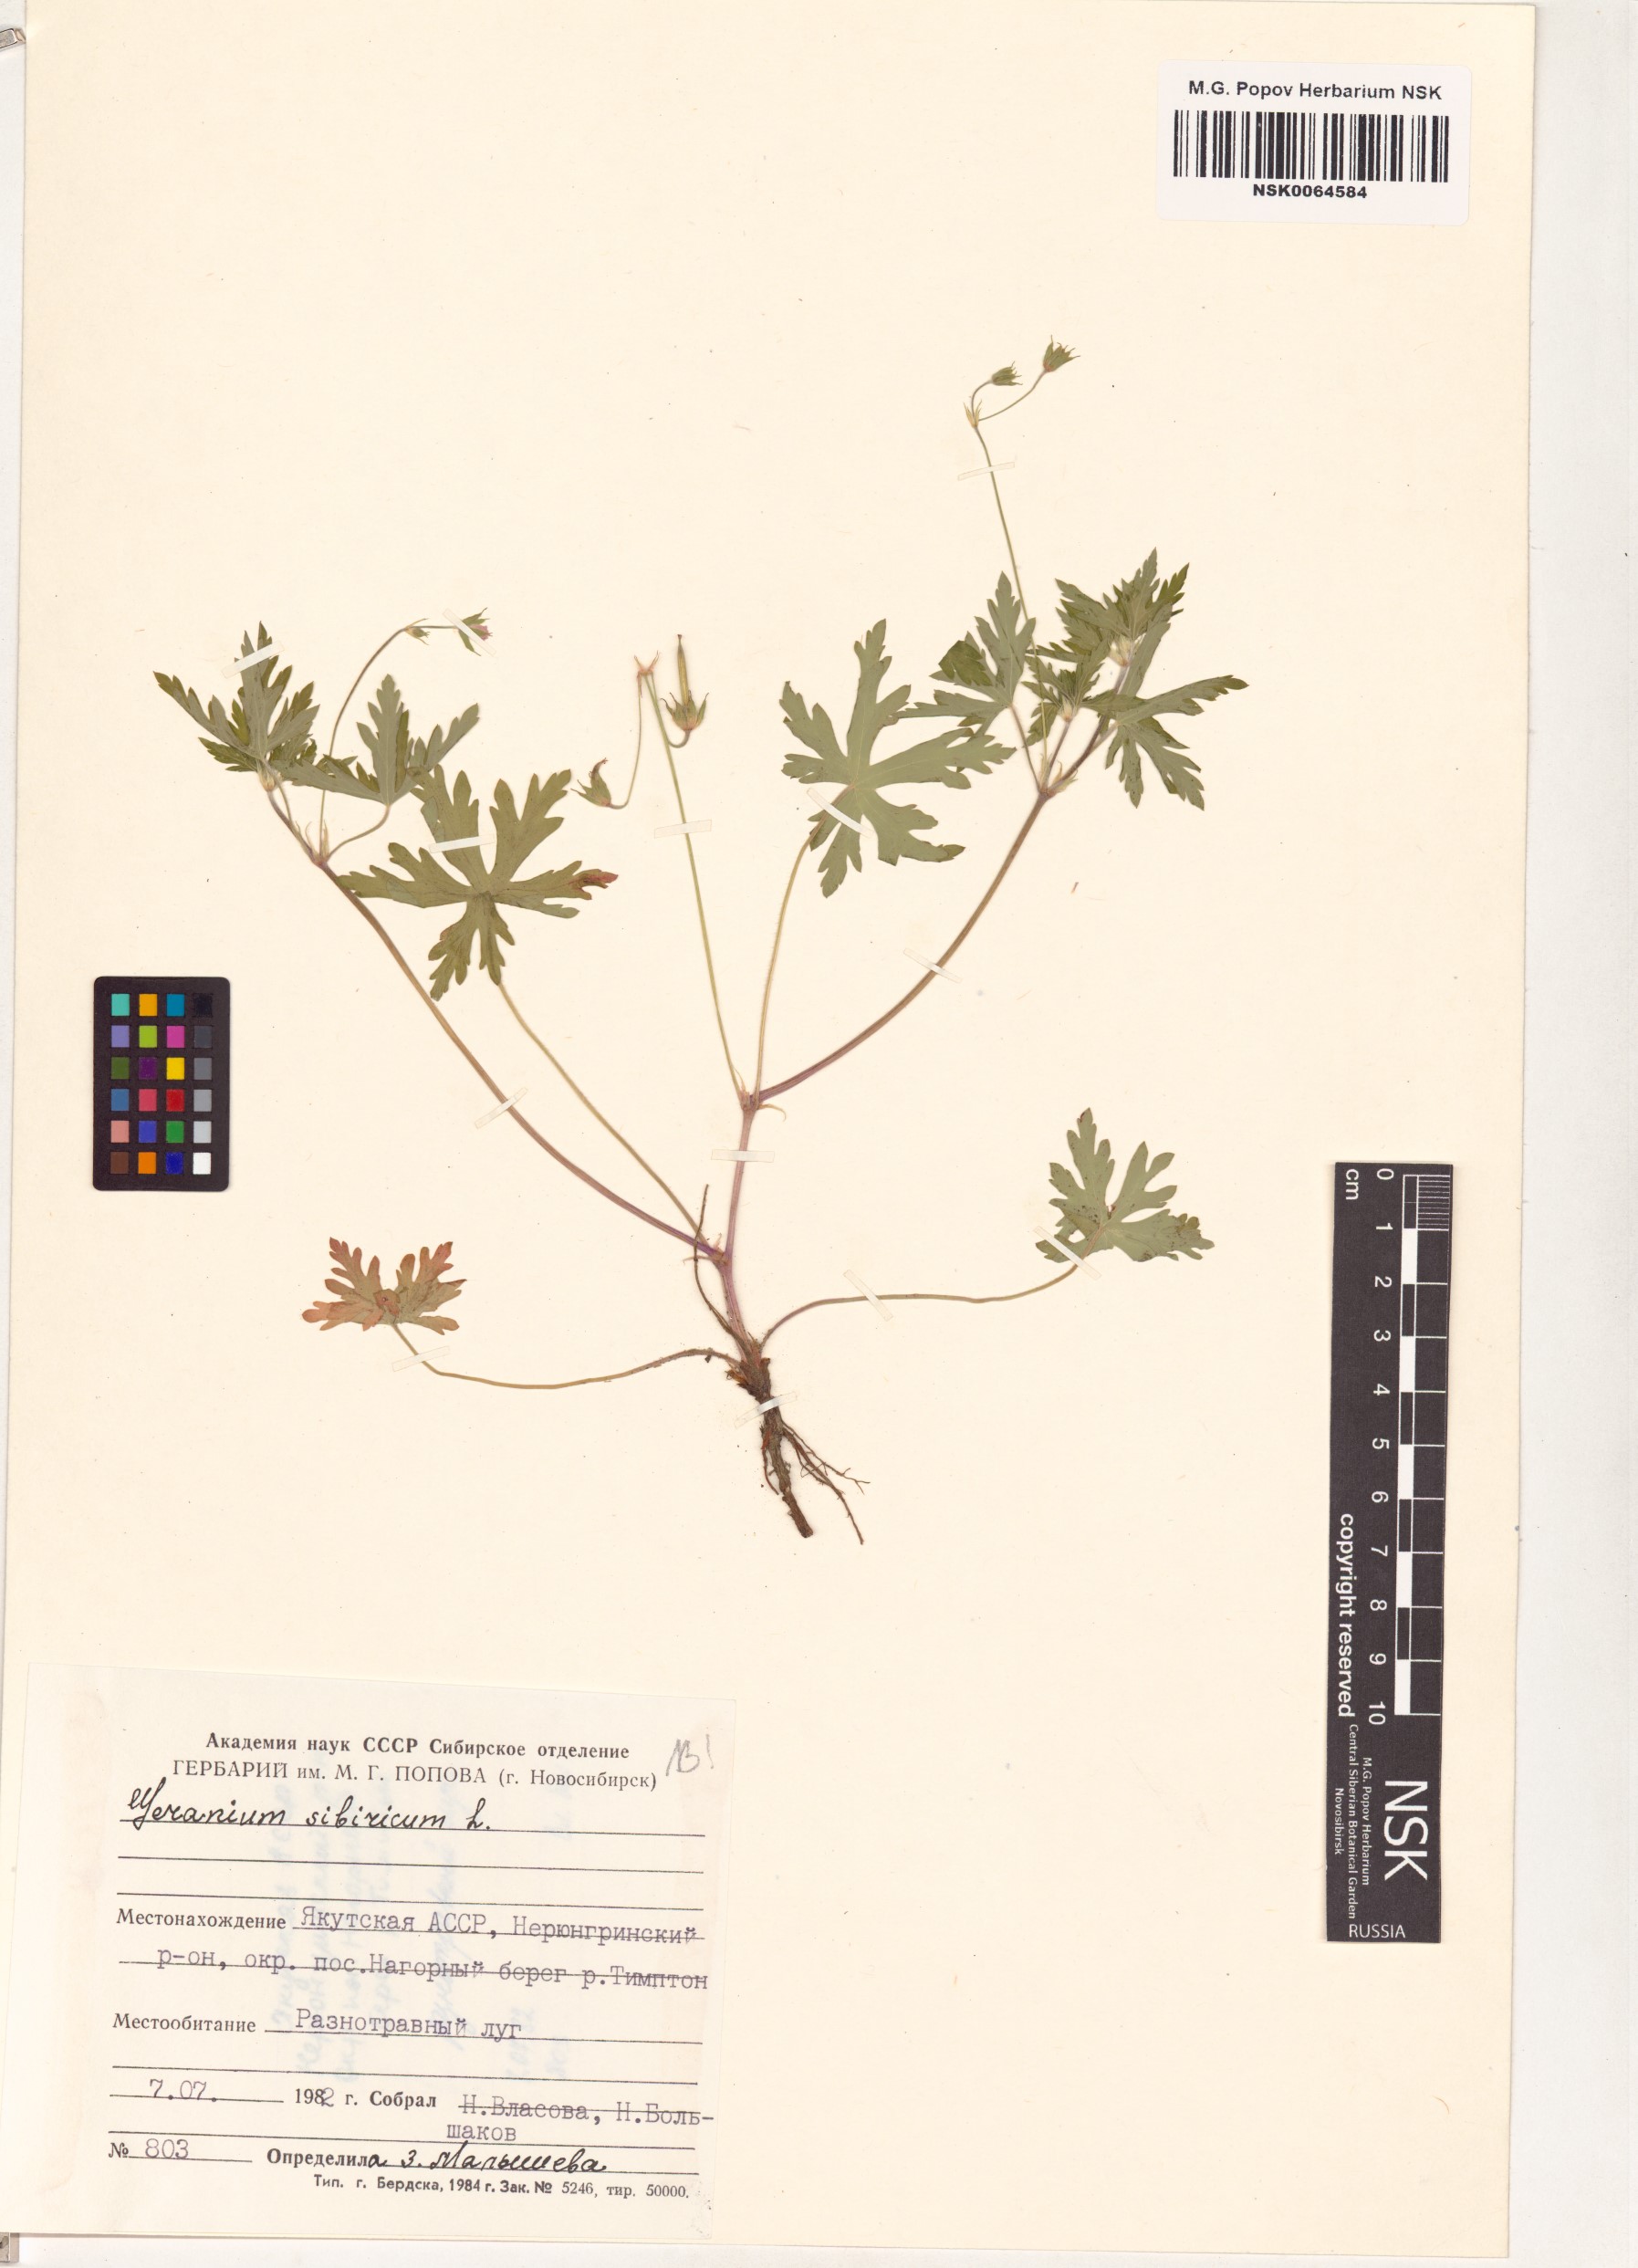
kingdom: Plantae
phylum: Tracheophyta
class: Magnoliopsida
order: Geraniales
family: Geraniaceae
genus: Geranium
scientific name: Geranium sibiricum
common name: Siberian crane's-bill
